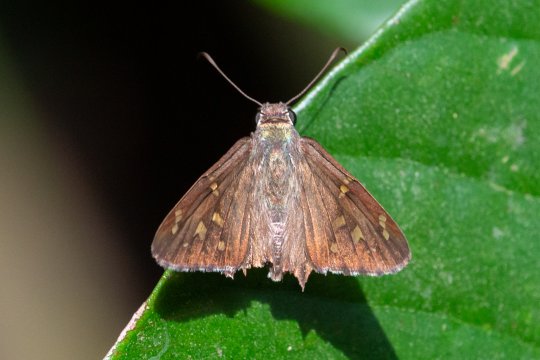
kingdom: Animalia
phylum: Arthropoda
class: Insecta
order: Lepidoptera
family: Hesperiidae
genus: Pelopidas
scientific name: Pelopidas conjuncta
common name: Conjoined Swift
